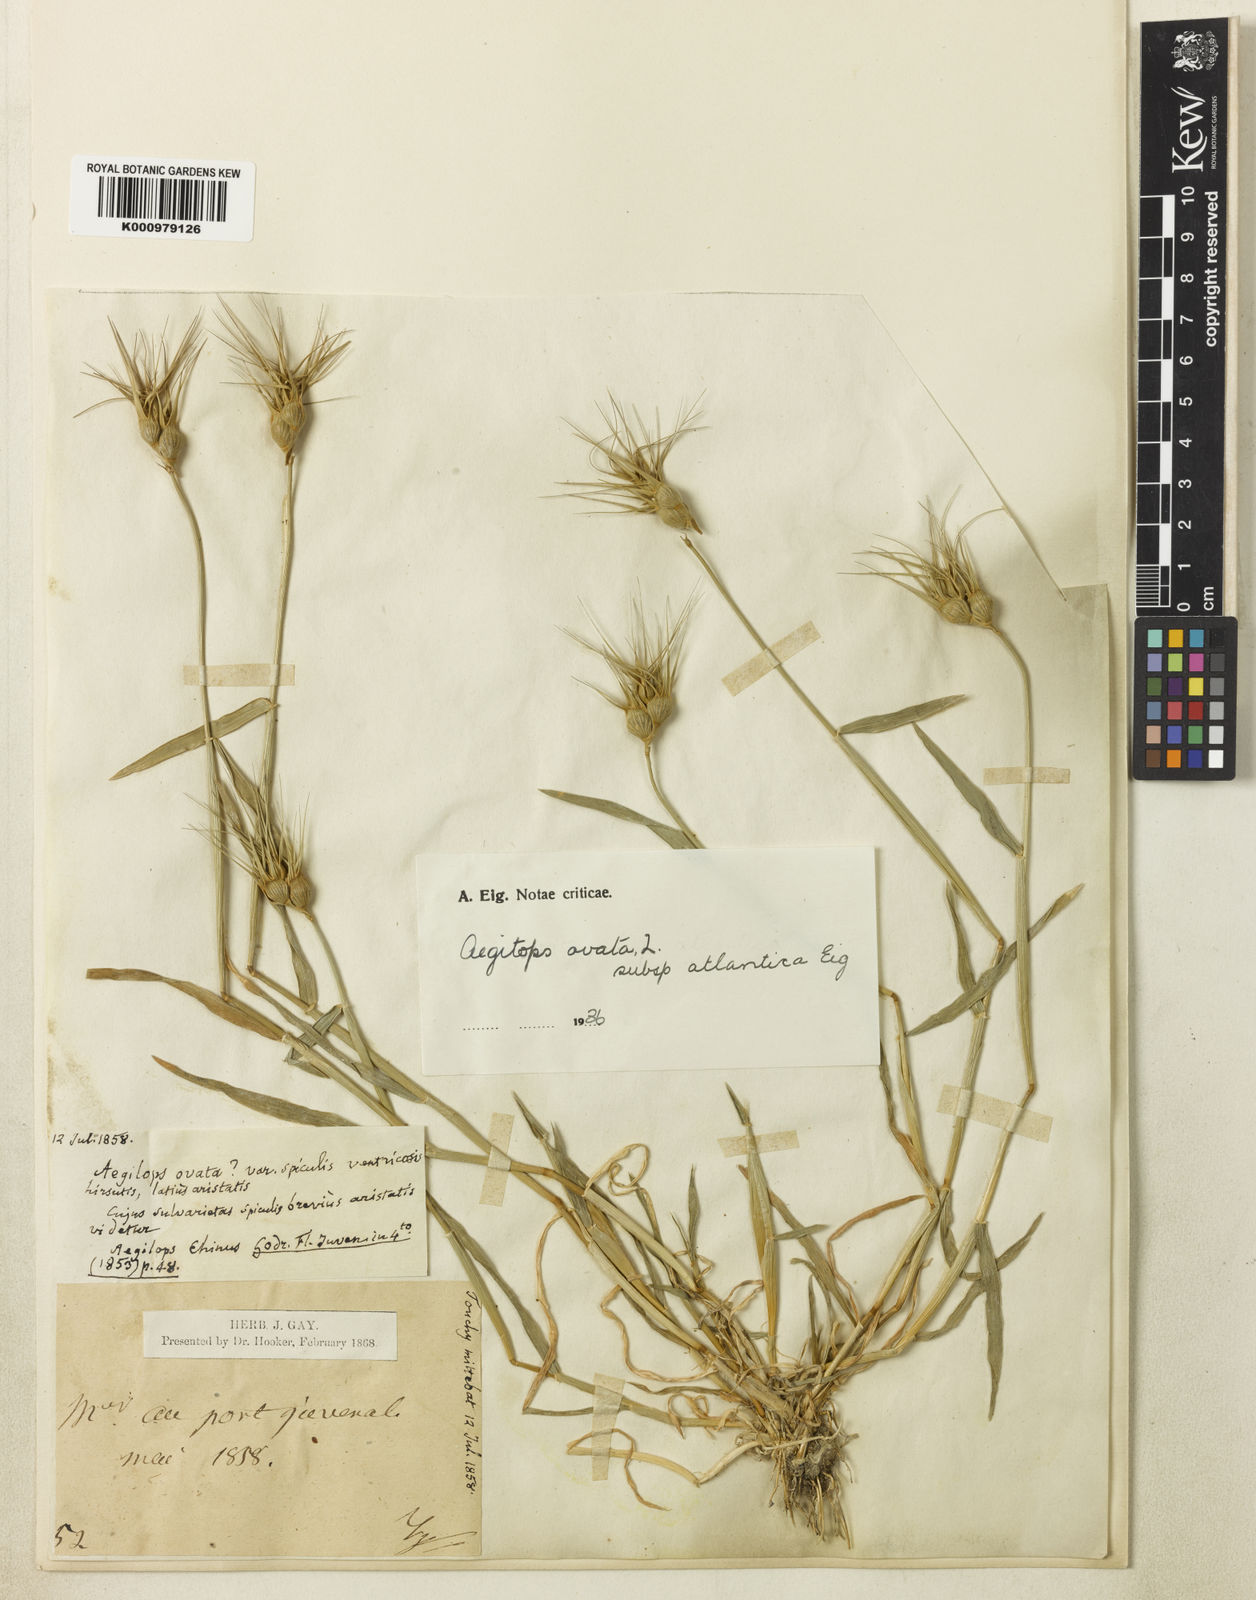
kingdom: Plantae
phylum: Tracheophyta
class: Liliopsida
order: Poales
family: Poaceae
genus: Aegilops
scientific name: Aegilops geniculata
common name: Ovate goat grass
